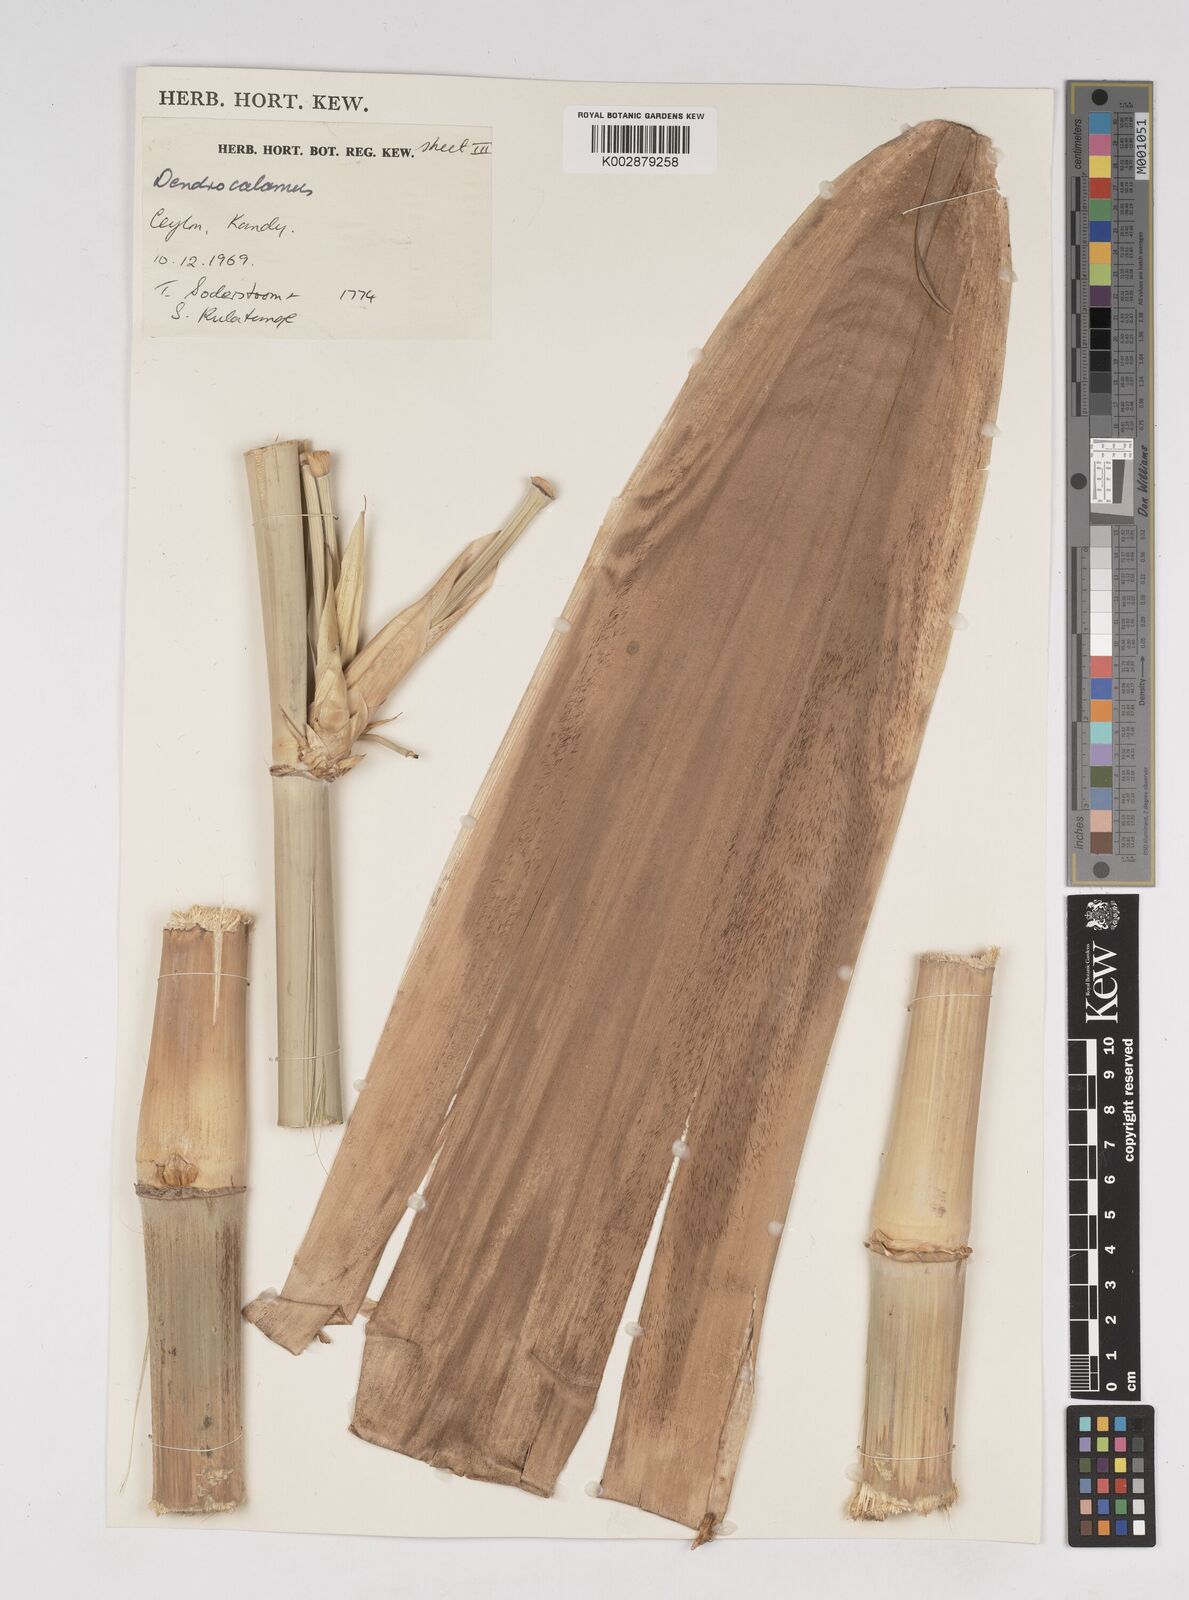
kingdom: Plantae
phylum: Tracheophyta
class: Liliopsida
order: Poales
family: Poaceae
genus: Dendrocalamus
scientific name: Dendrocalamus
